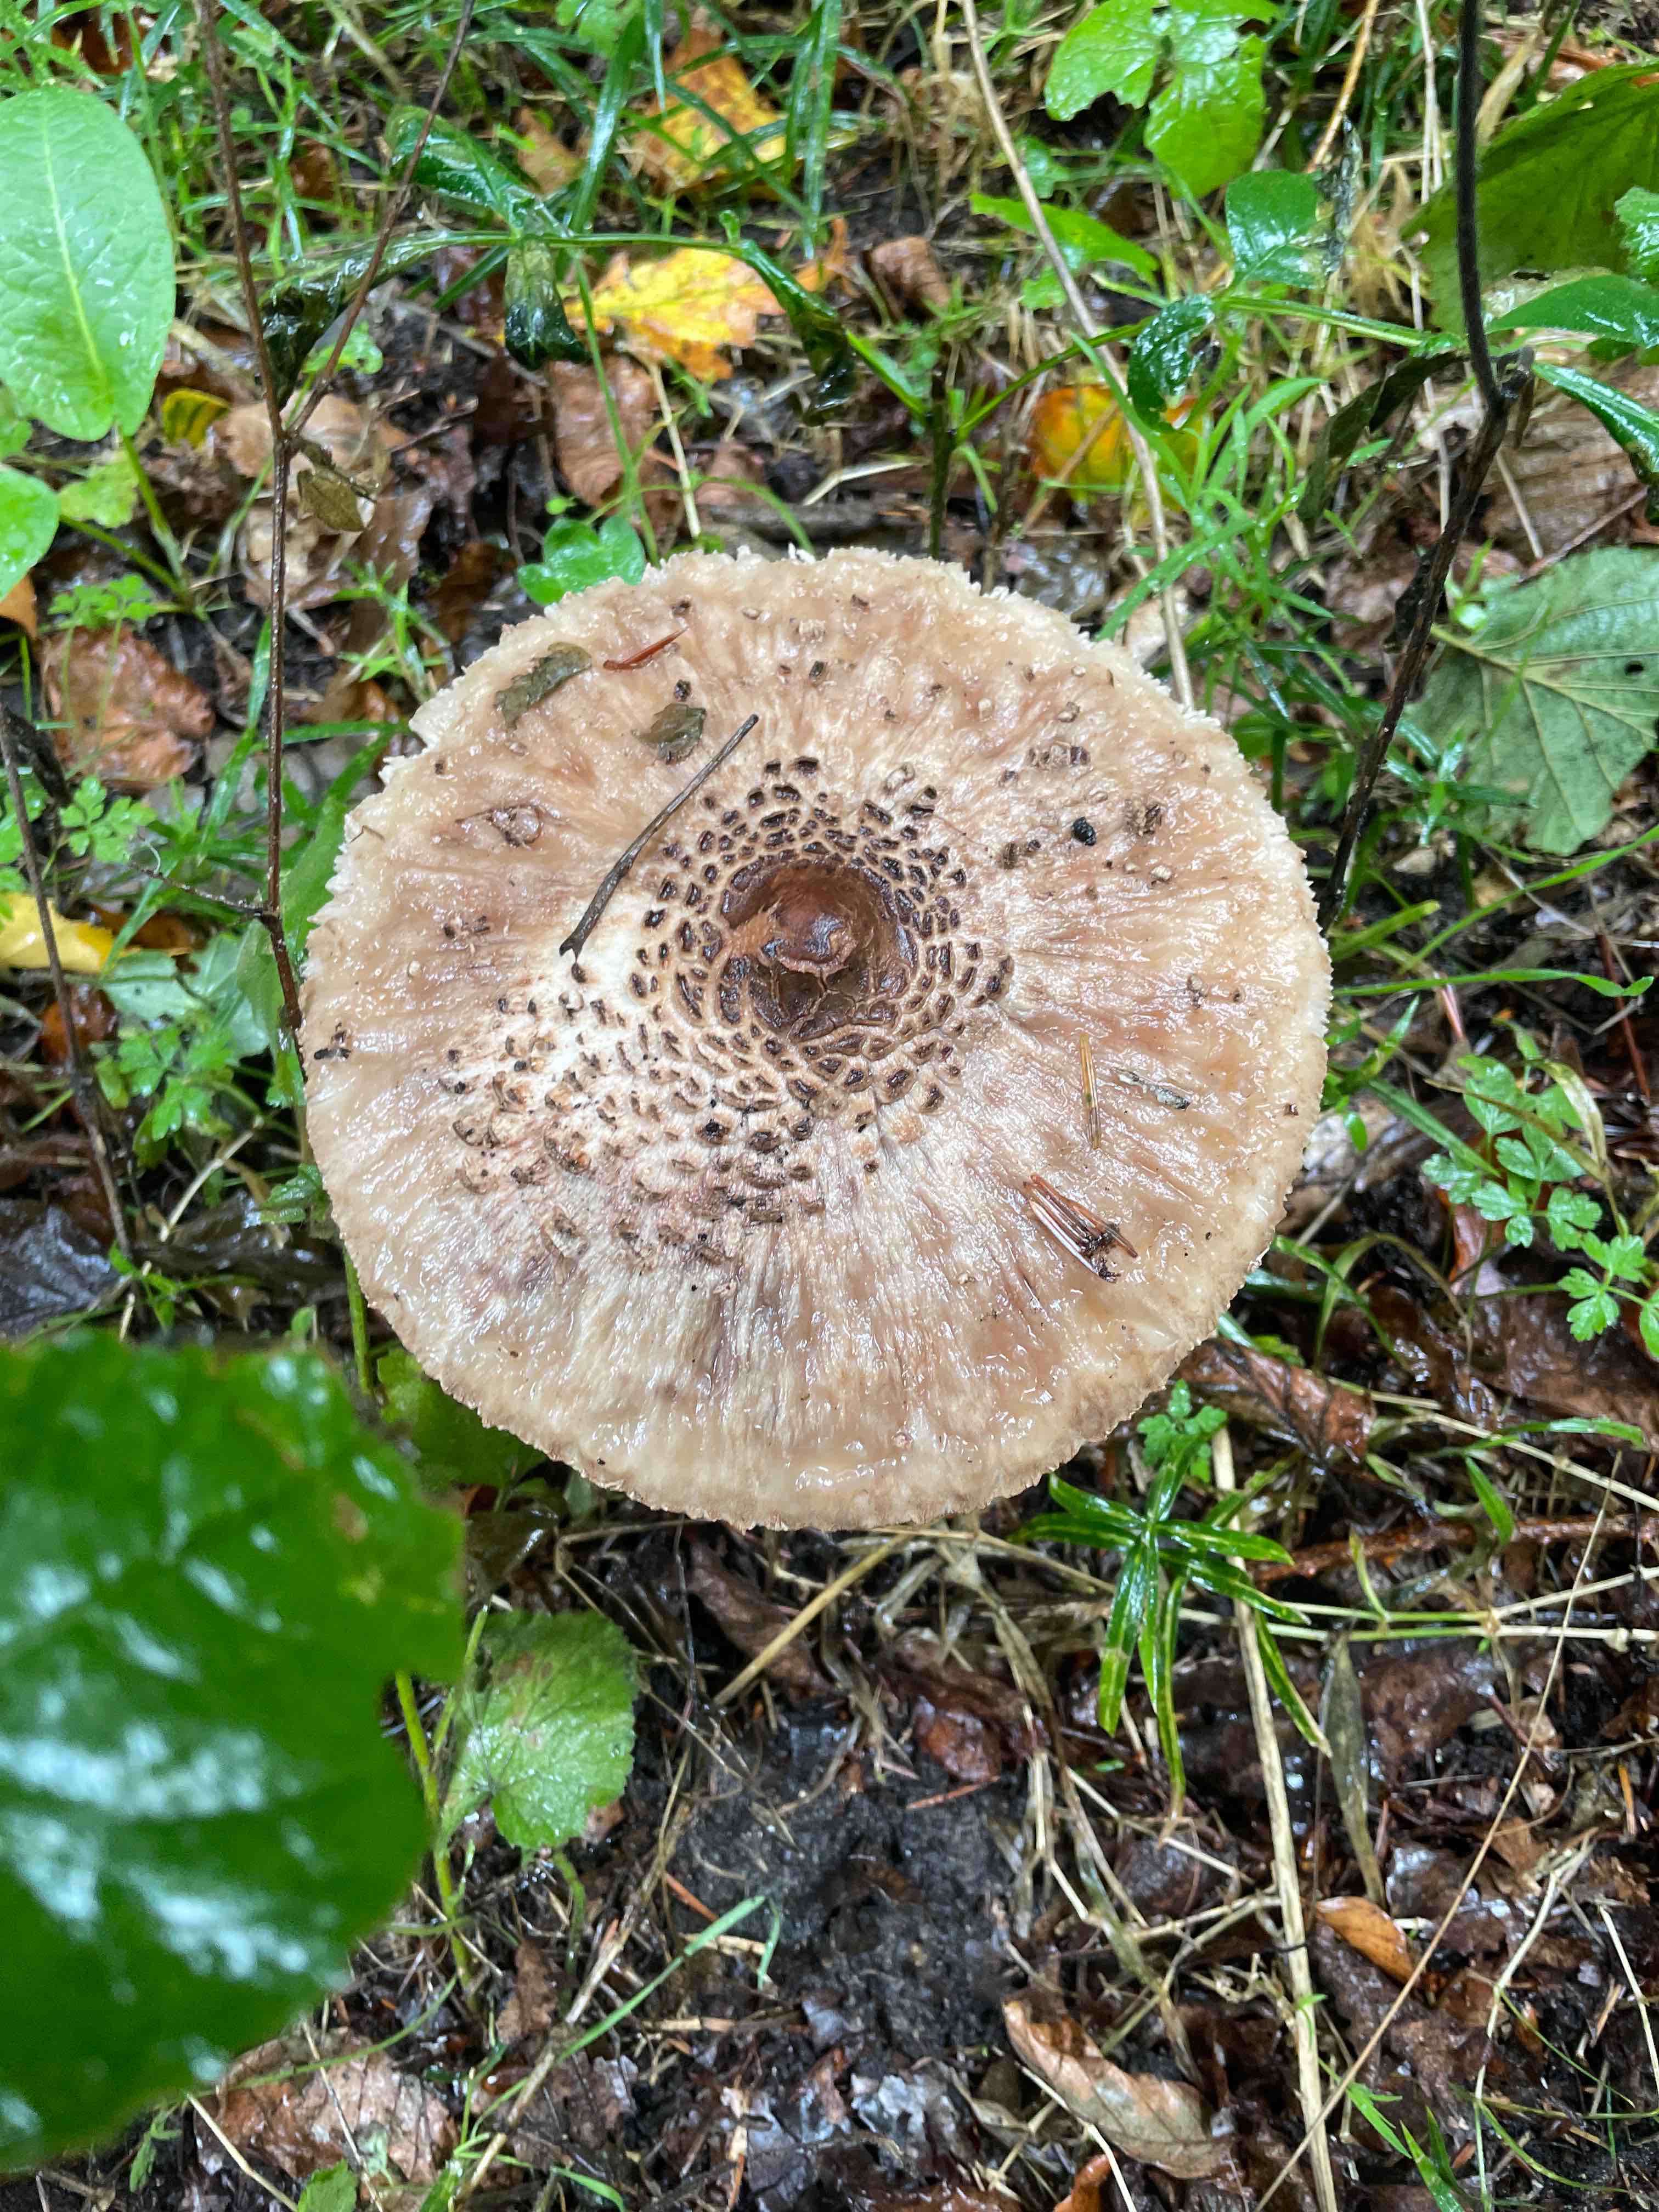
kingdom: Fungi
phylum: Basidiomycota
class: Agaricomycetes
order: Agaricales
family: Agaricaceae
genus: Macrolepiota
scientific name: Macrolepiota
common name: kæmpeparasolhat
